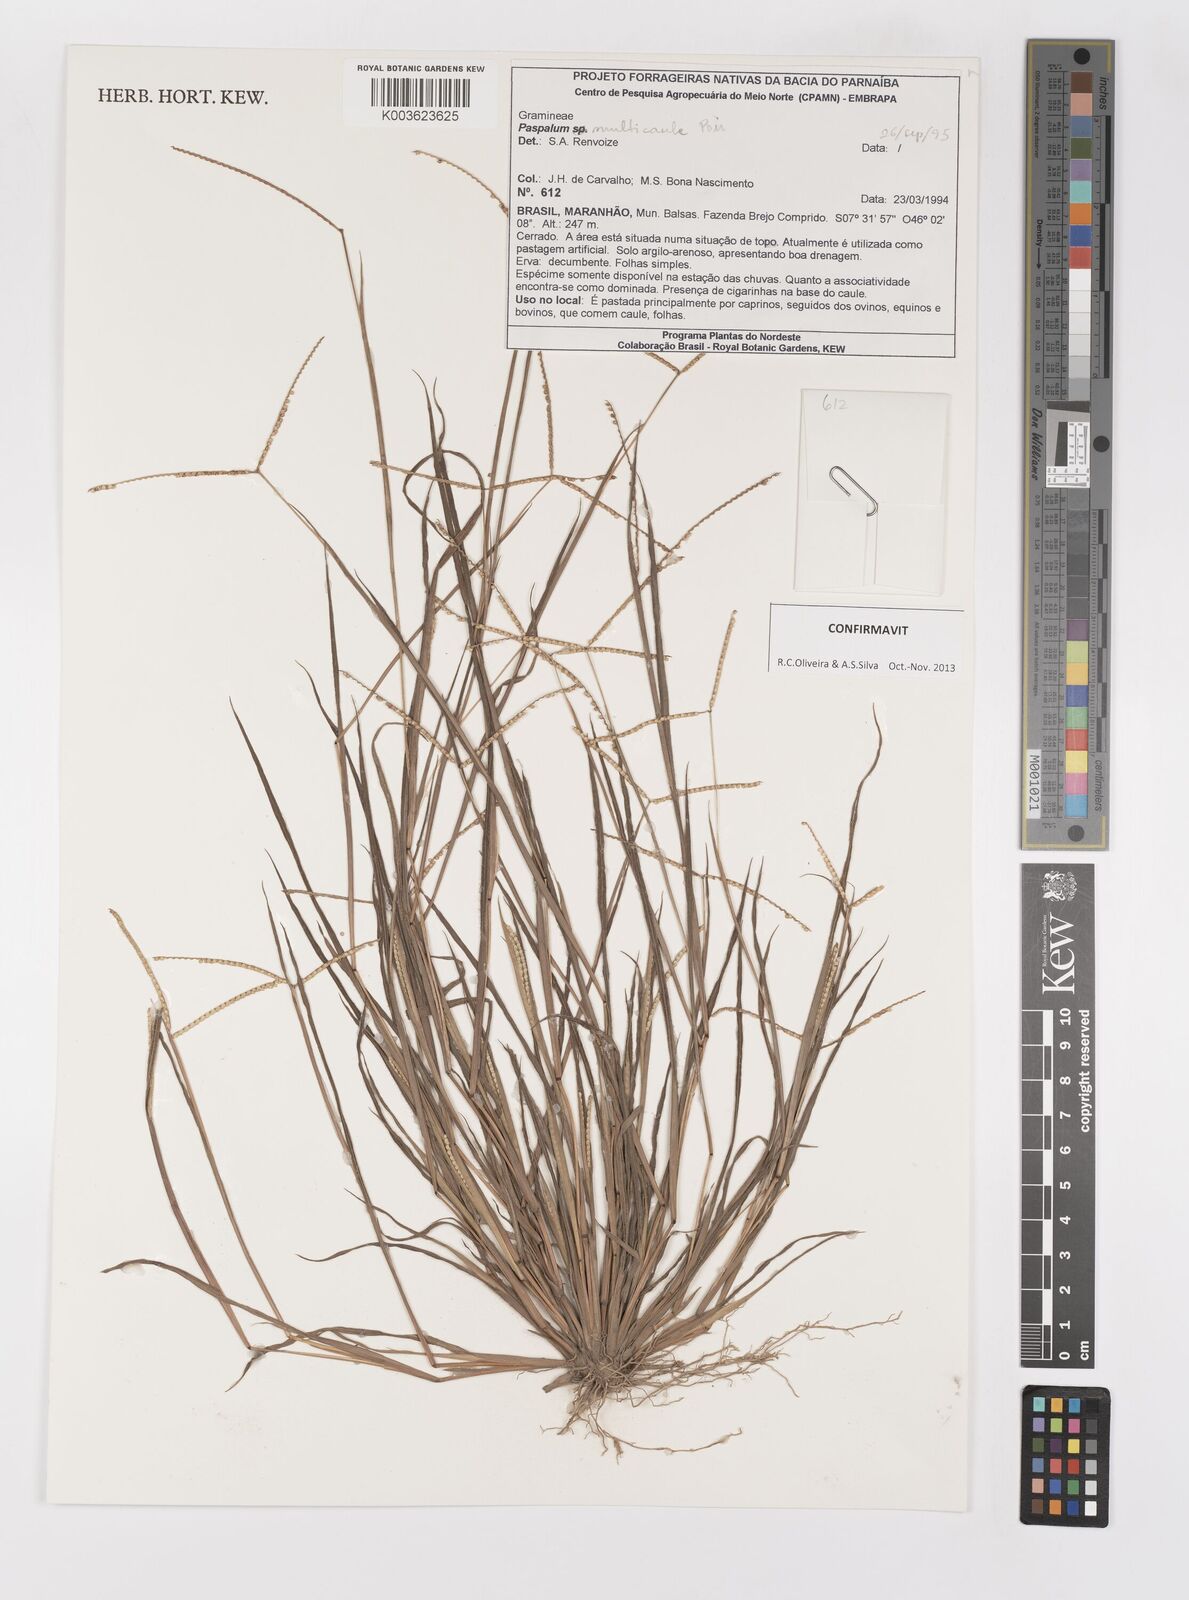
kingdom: Plantae
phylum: Tracheophyta
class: Liliopsida
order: Poales
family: Poaceae
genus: Paspalum
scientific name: Paspalum multicaule
